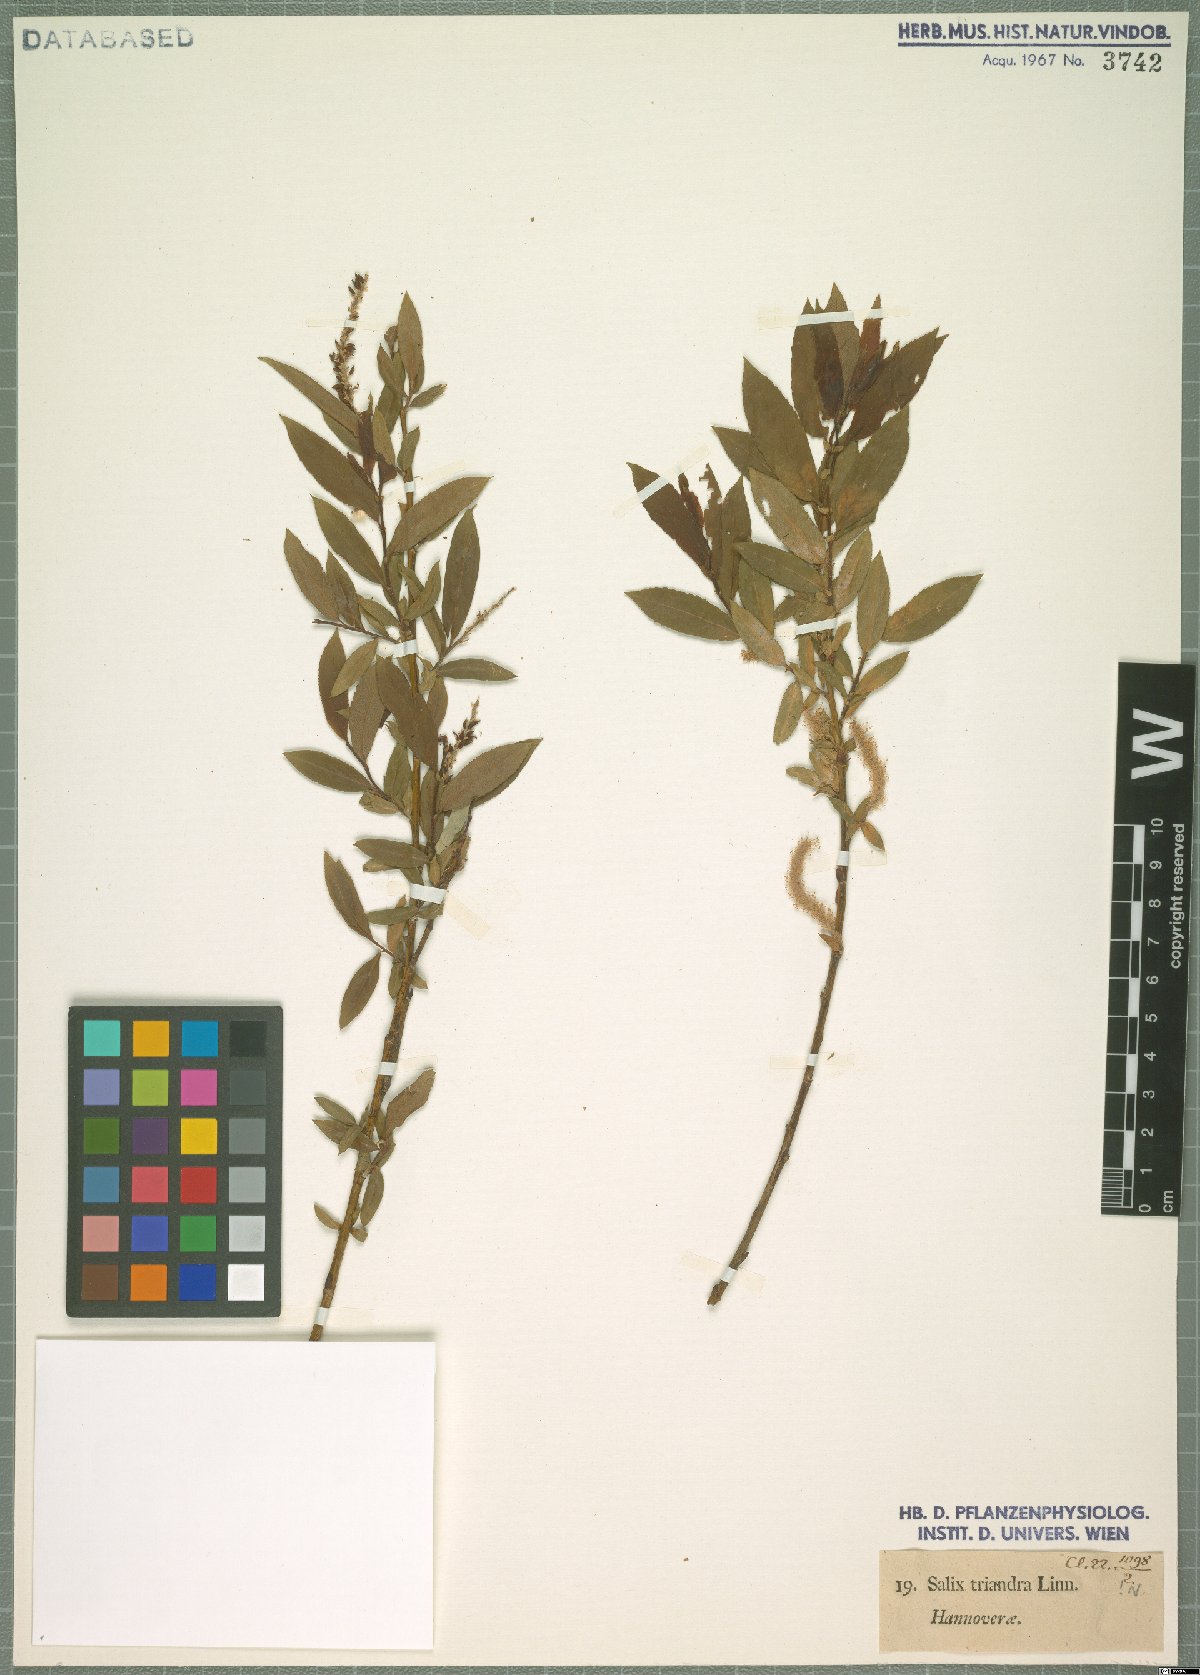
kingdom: Plantae
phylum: Tracheophyta
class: Magnoliopsida
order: Malpighiales
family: Salicaceae
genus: Salix
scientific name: Salix triandra
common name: Almond willow
